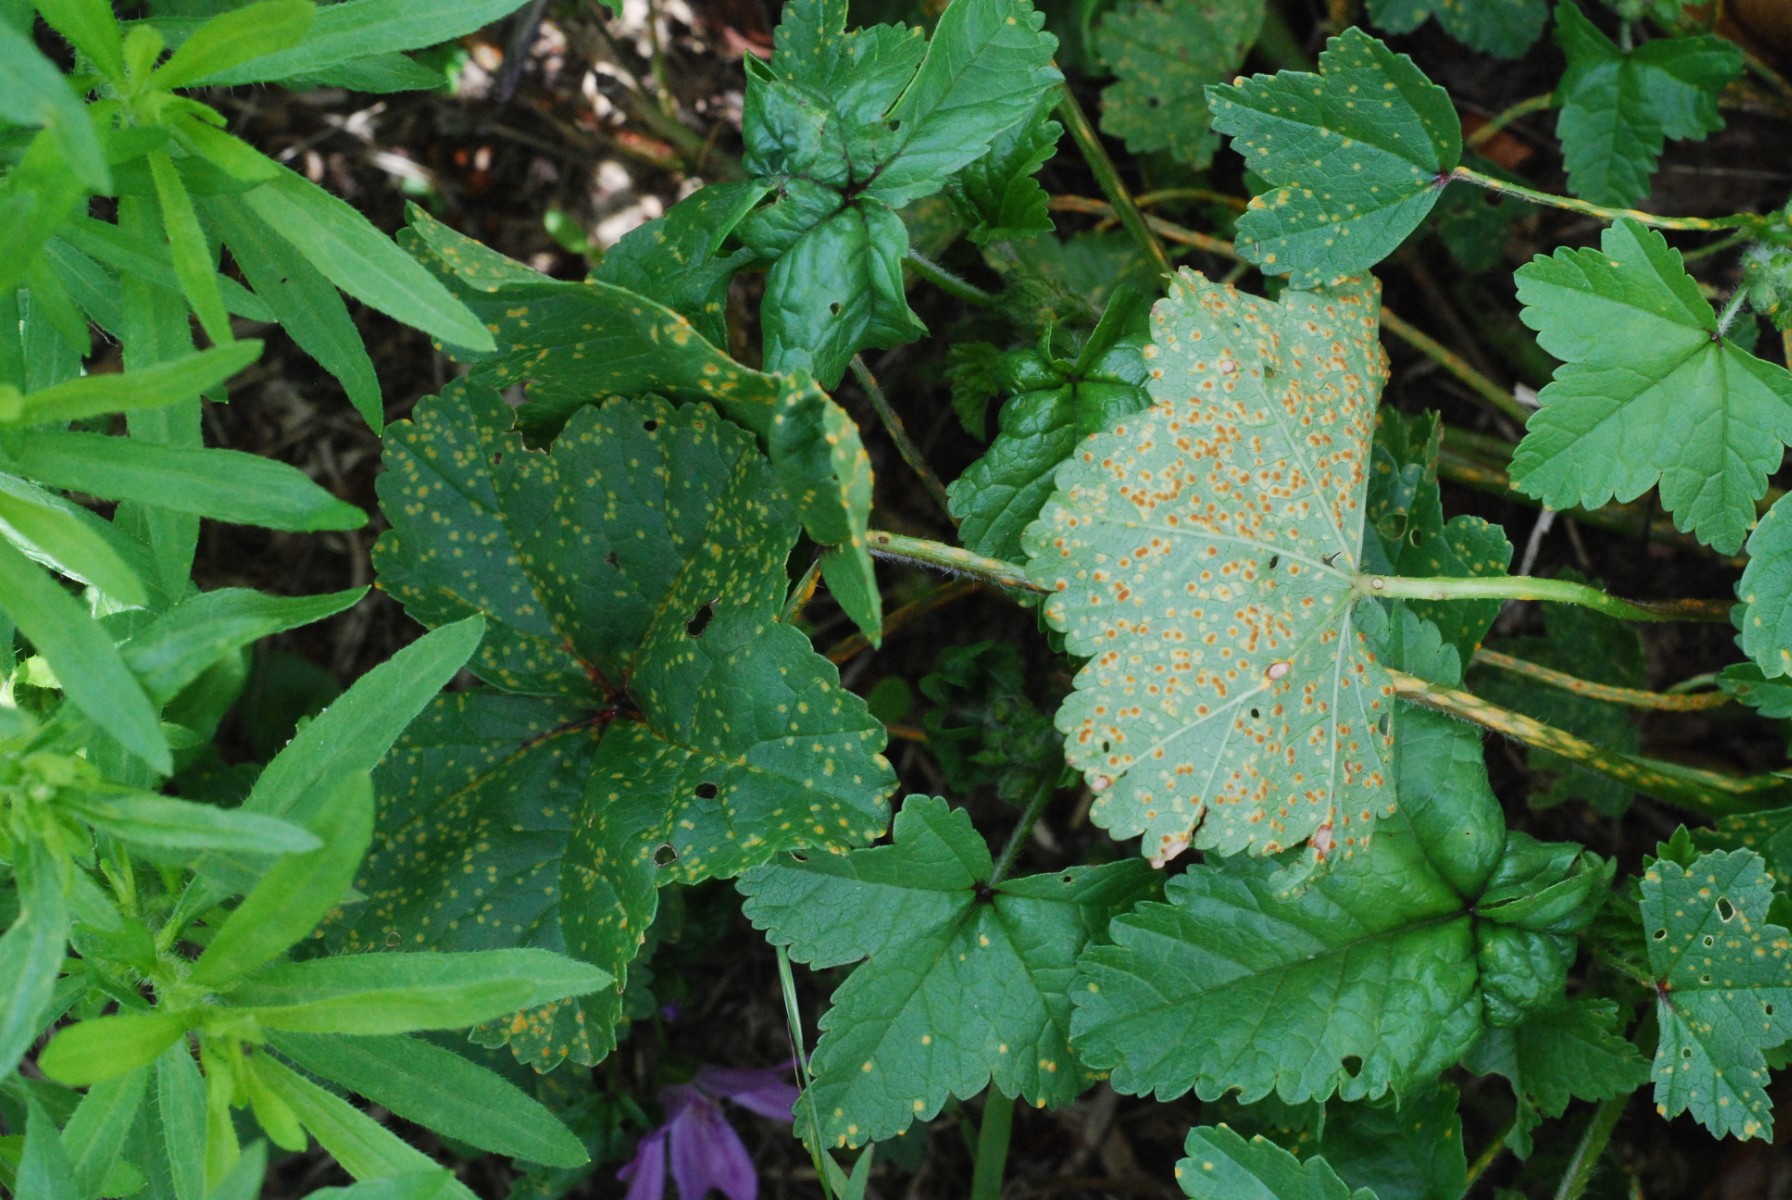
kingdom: Fungi
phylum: Basidiomycota
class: Pucciniomycetes
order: Pucciniales
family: Pucciniaceae
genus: Puccinia
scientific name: Puccinia malvacearum
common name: stokrose-tvecellerust
